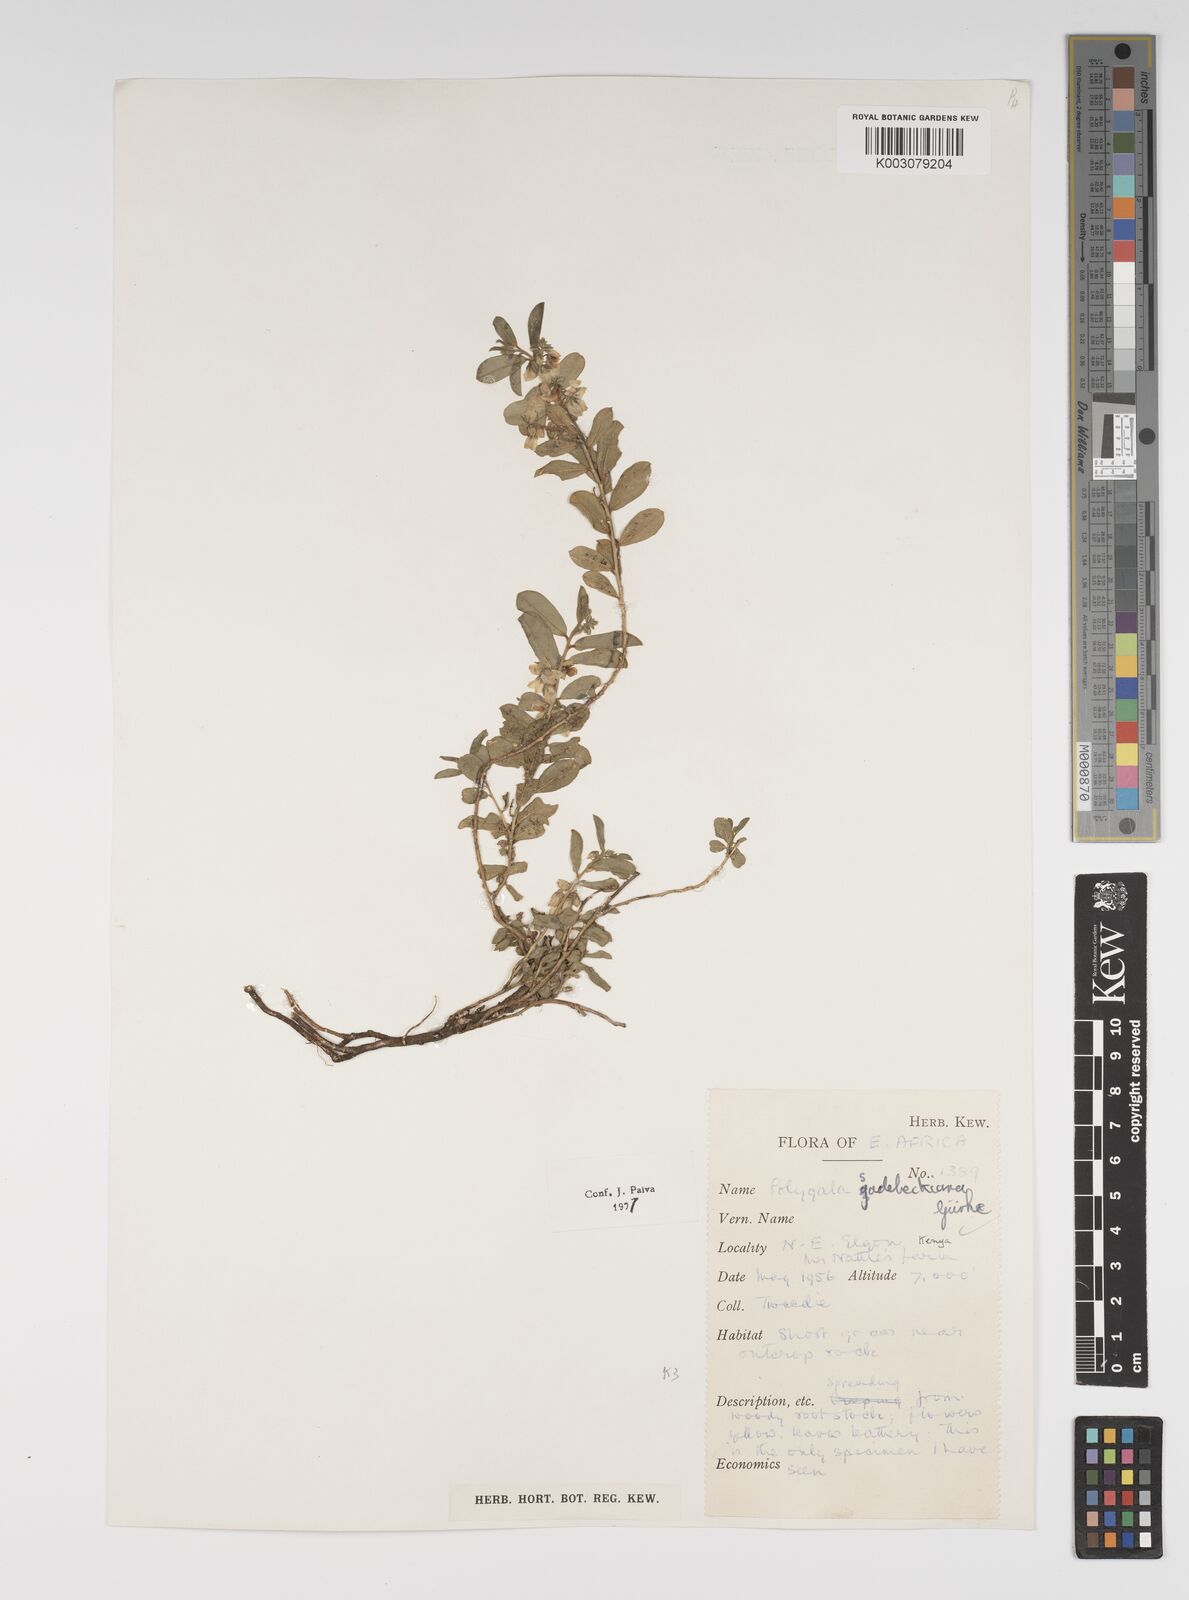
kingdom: Plantae
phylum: Tracheophyta
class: Magnoliopsida
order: Fabales
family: Polygalaceae
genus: Polygala
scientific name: Polygala sadebeckiana
